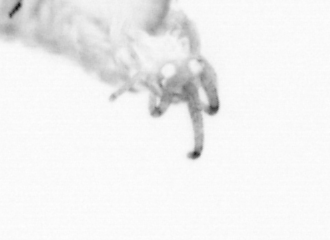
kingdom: Animalia
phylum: Annelida
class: Polychaeta
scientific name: Polychaeta
